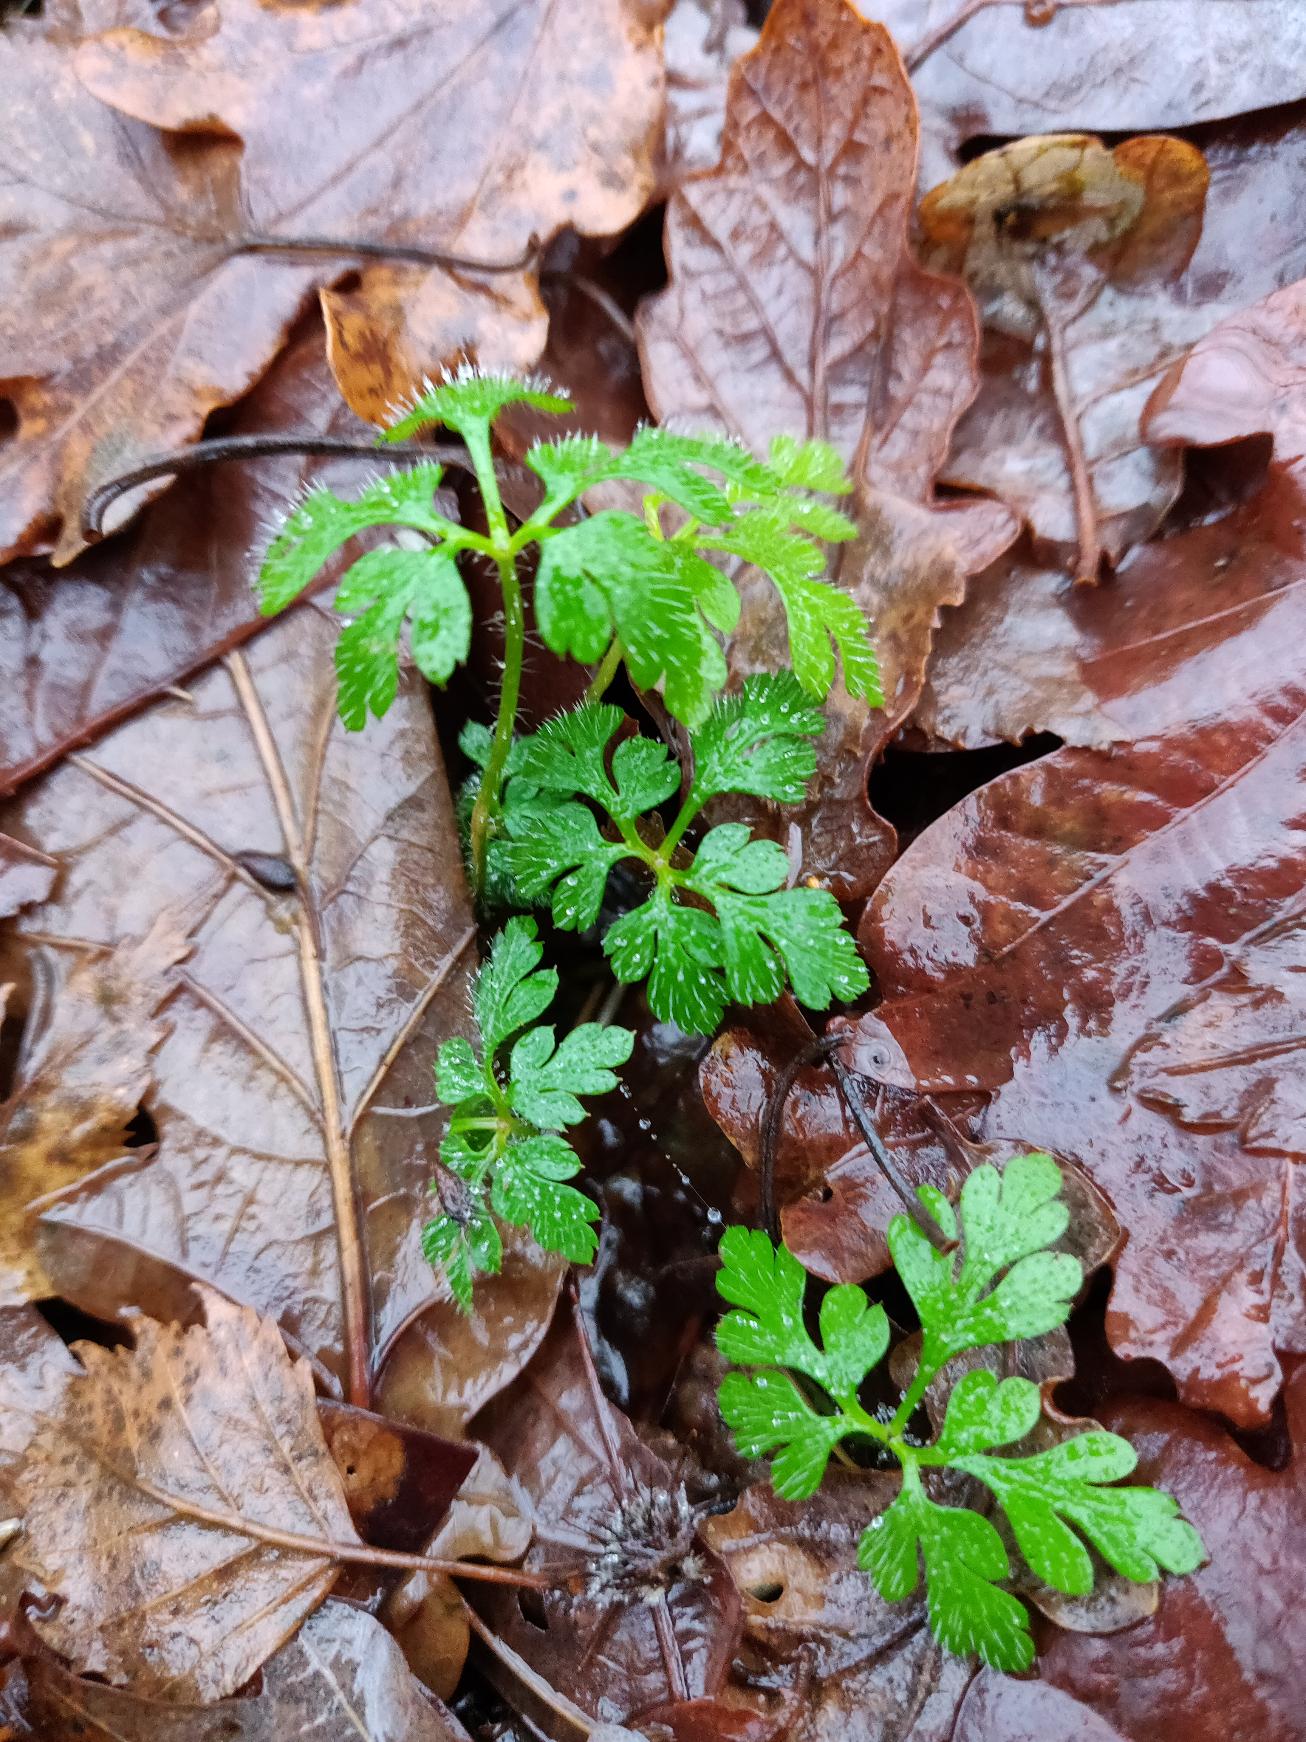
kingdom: Plantae
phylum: Tracheophyta
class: Magnoliopsida
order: Geraniales
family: Geraniaceae
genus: Geranium
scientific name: Geranium robertianum
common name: Stinkende storkenæb
